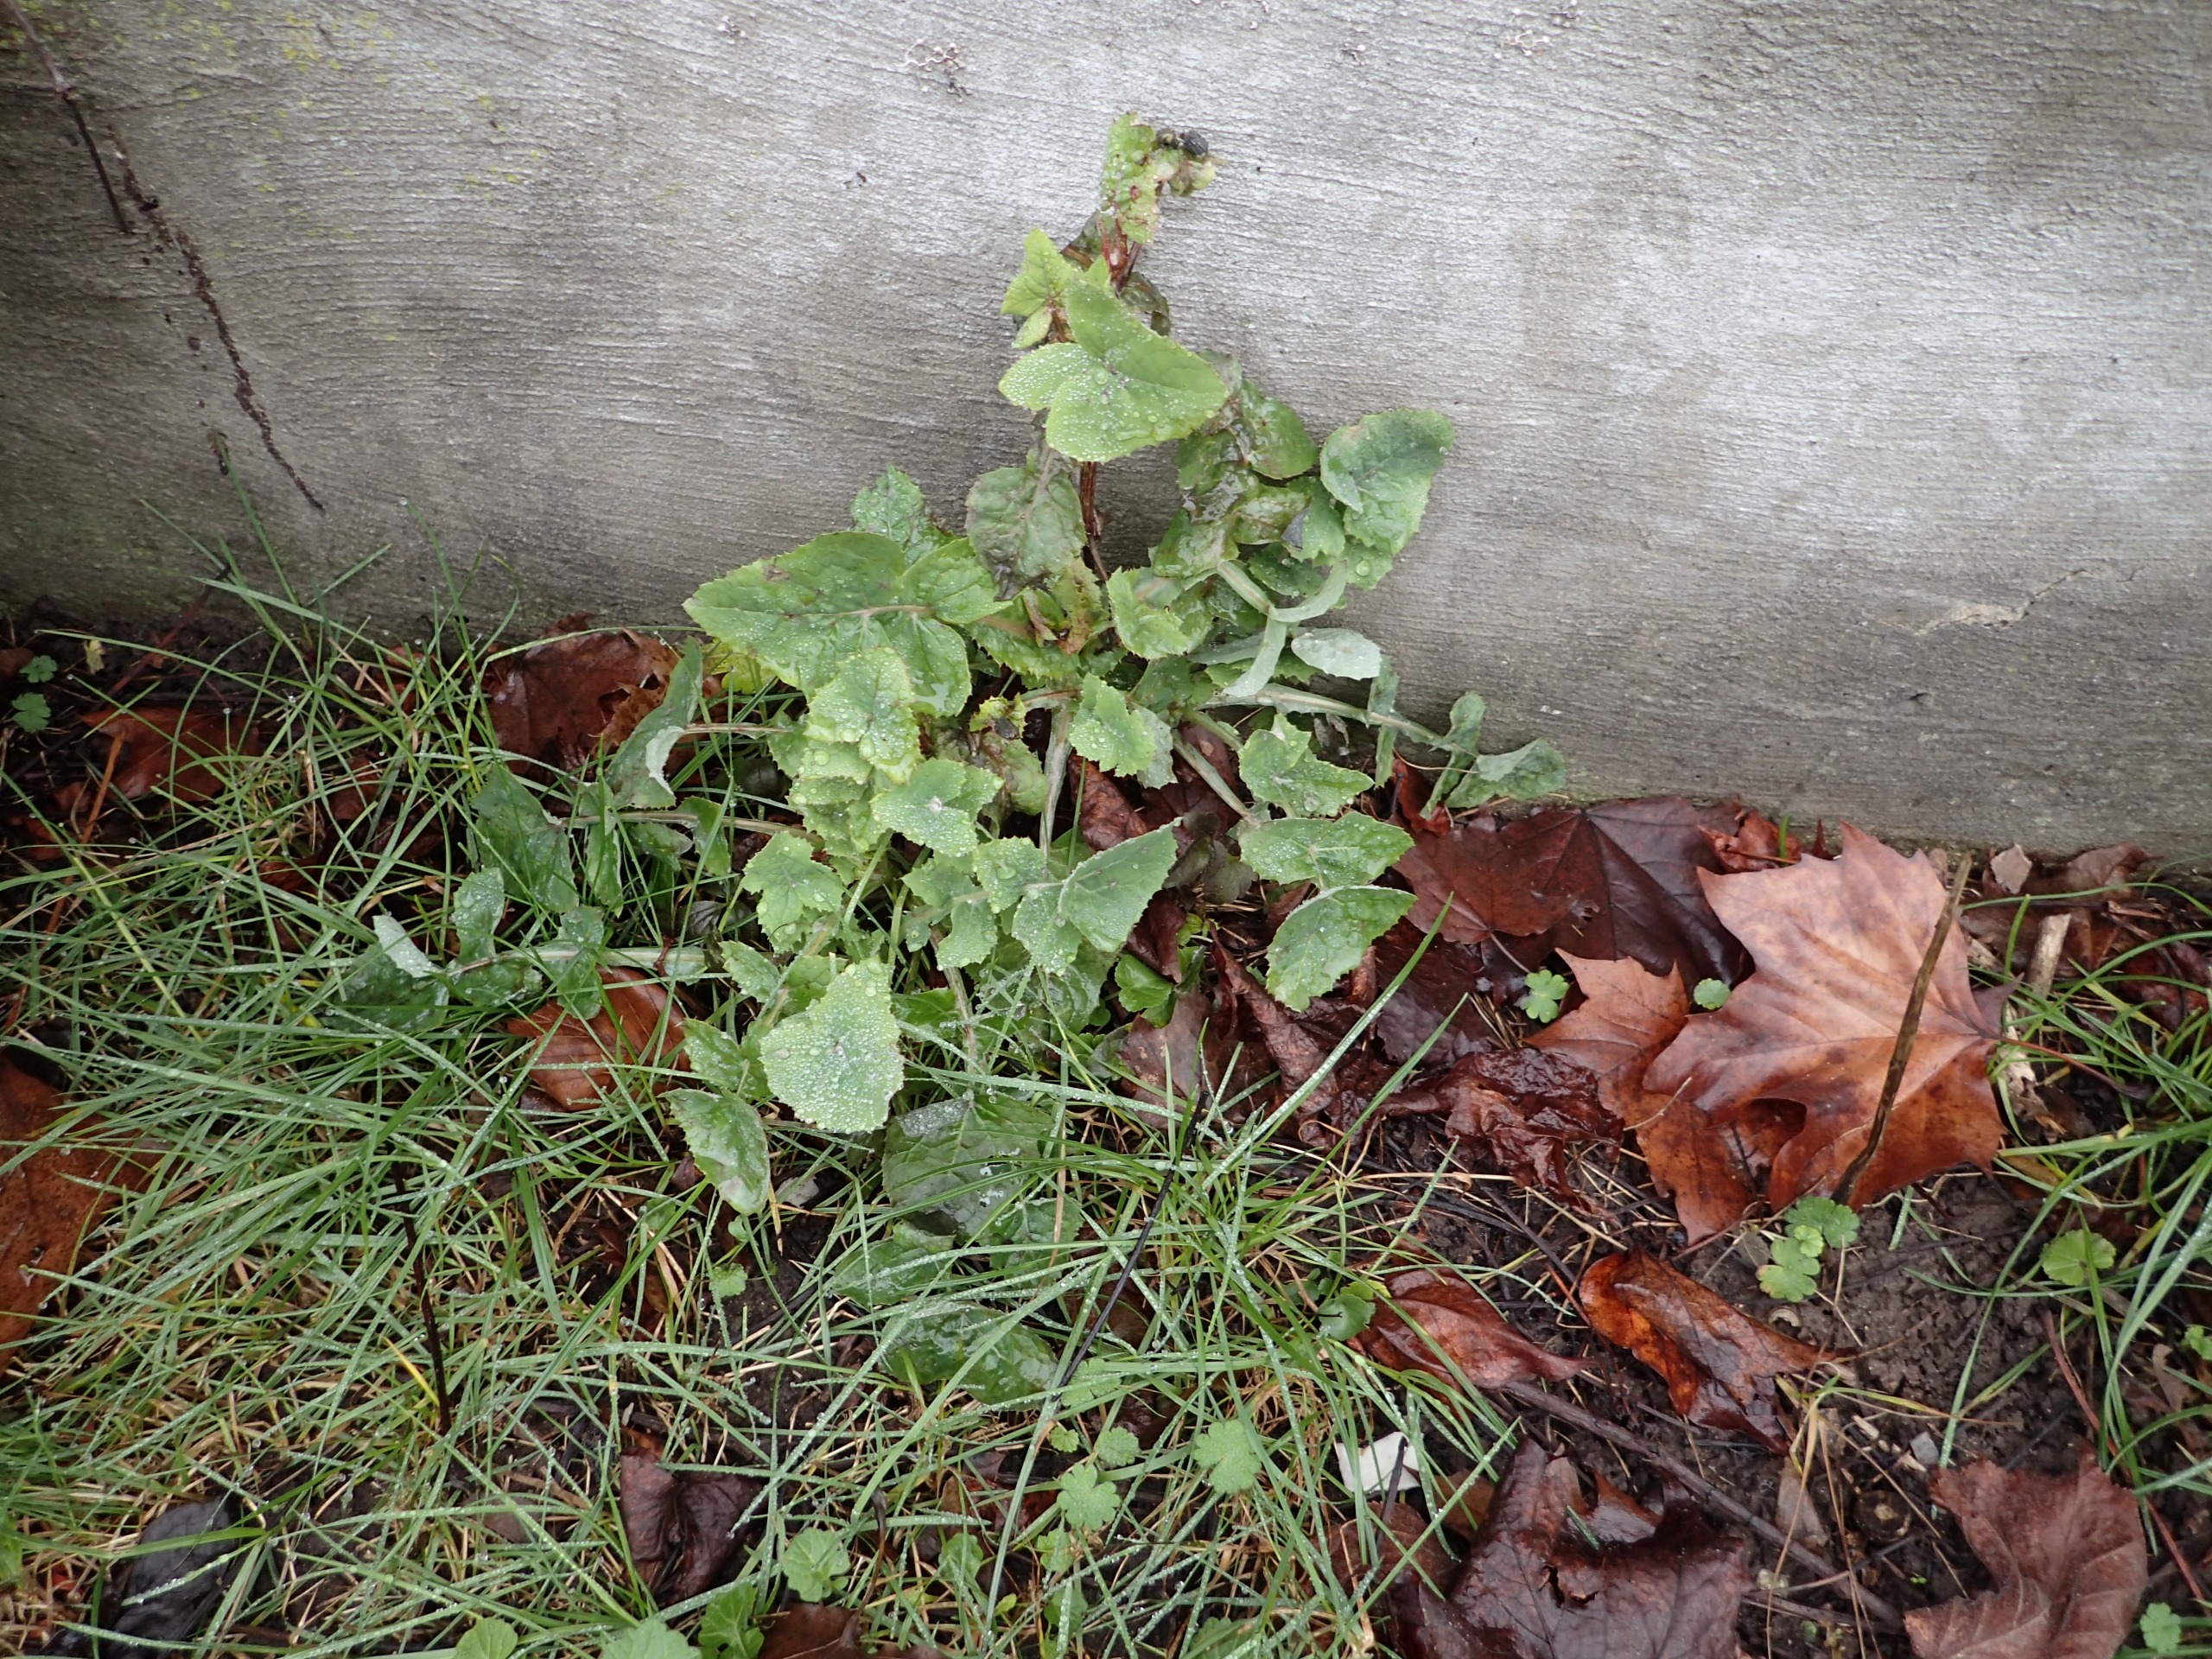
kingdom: Plantae
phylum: Tracheophyta
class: Magnoliopsida
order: Asterales
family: Asteraceae
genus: Sonchus
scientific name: Sonchus oleraceus
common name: Almindelig svinemælk
